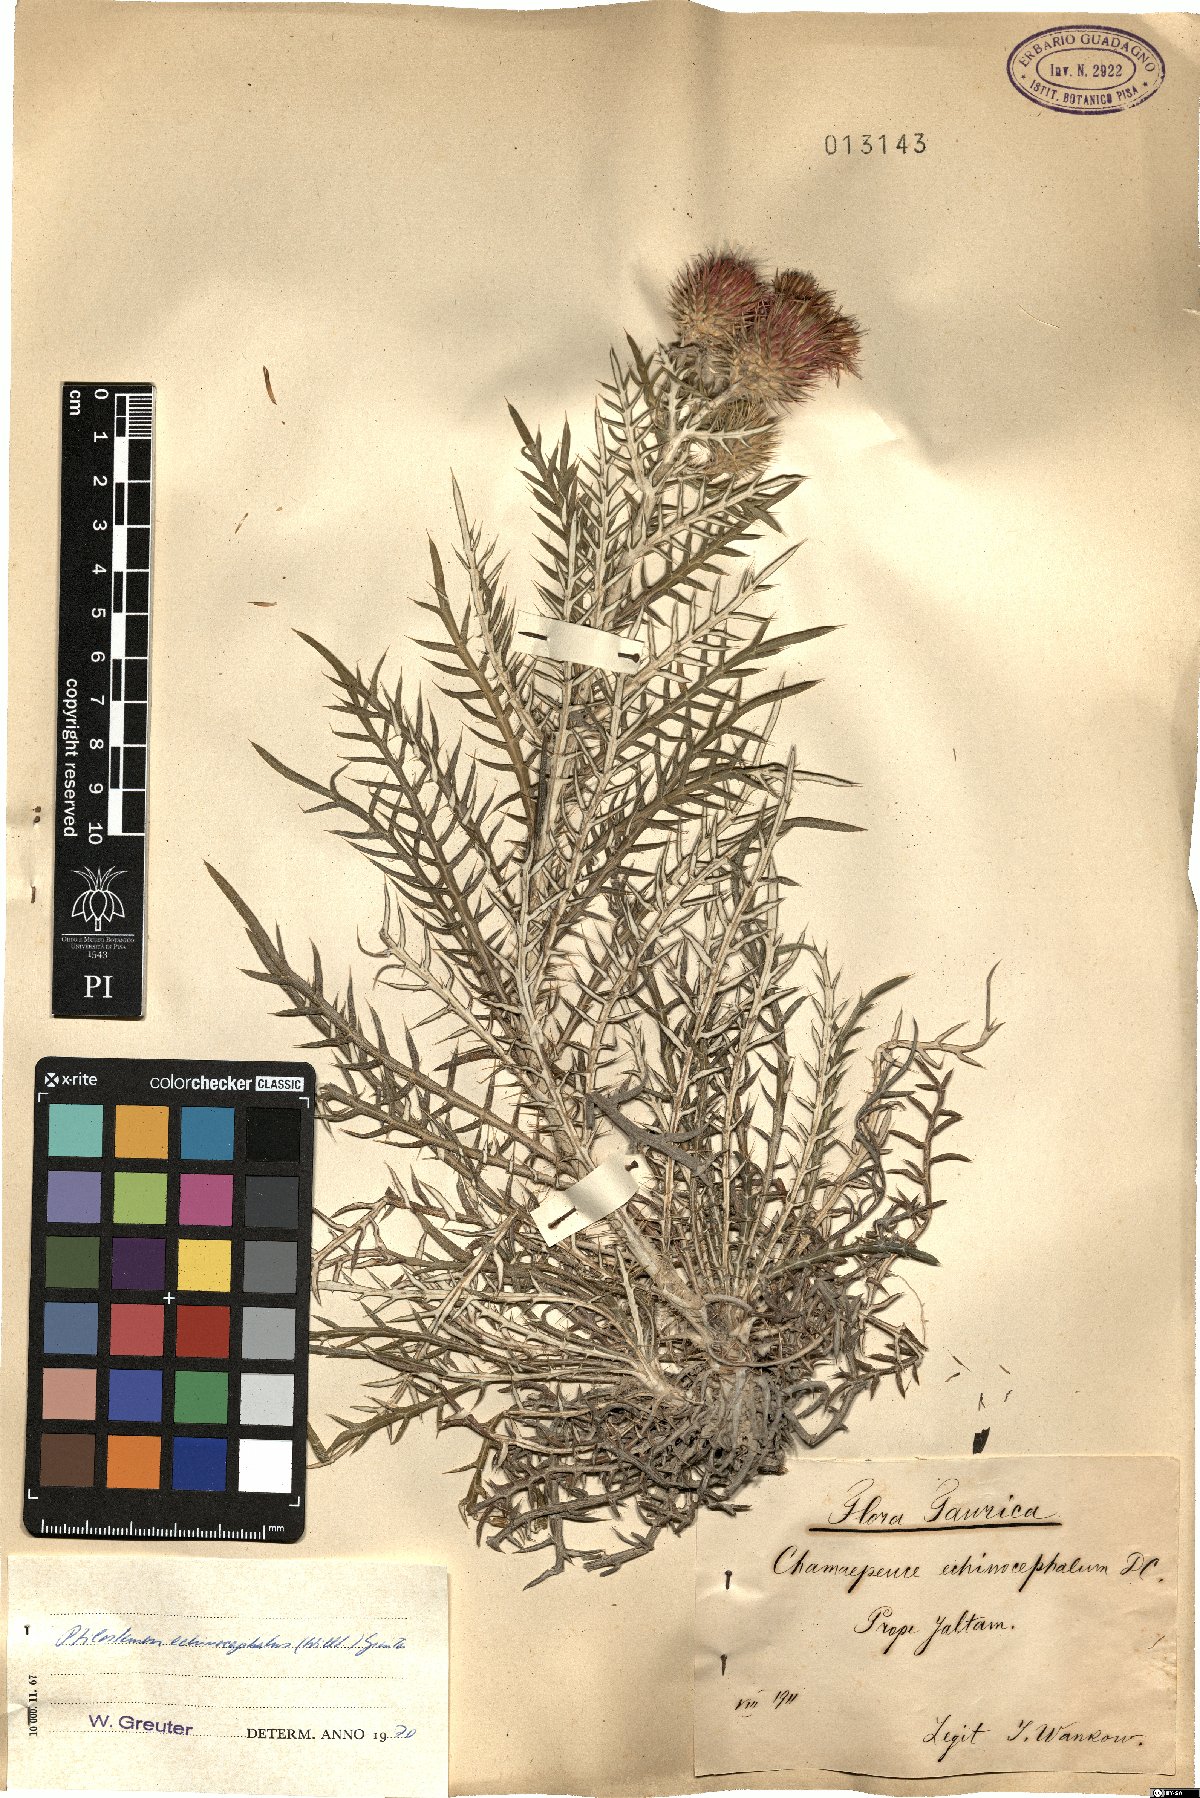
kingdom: Plantae
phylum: Tracheophyta
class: Magnoliopsida
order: Asterales
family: Asteraceae
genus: Ptilostemon
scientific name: Ptilostemon echinocephalus
